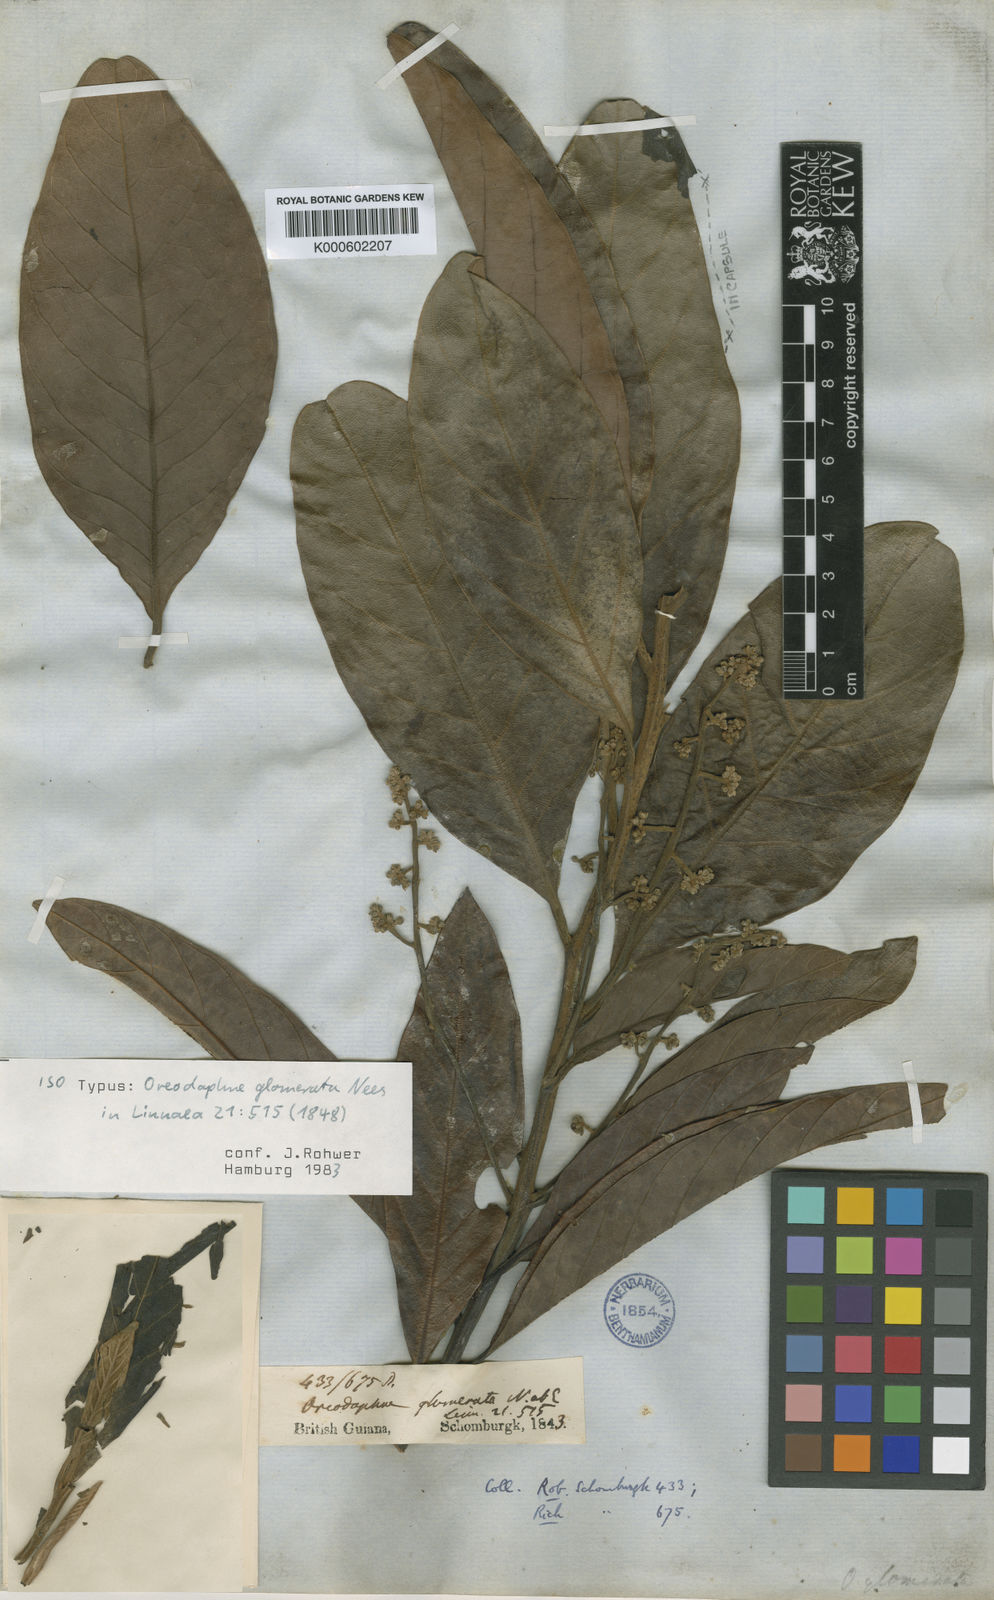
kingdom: Plantae
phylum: Tracheophyta
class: Magnoliopsida
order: Laurales
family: Lauraceae
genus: Ocotea
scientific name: Ocotea glomerata
